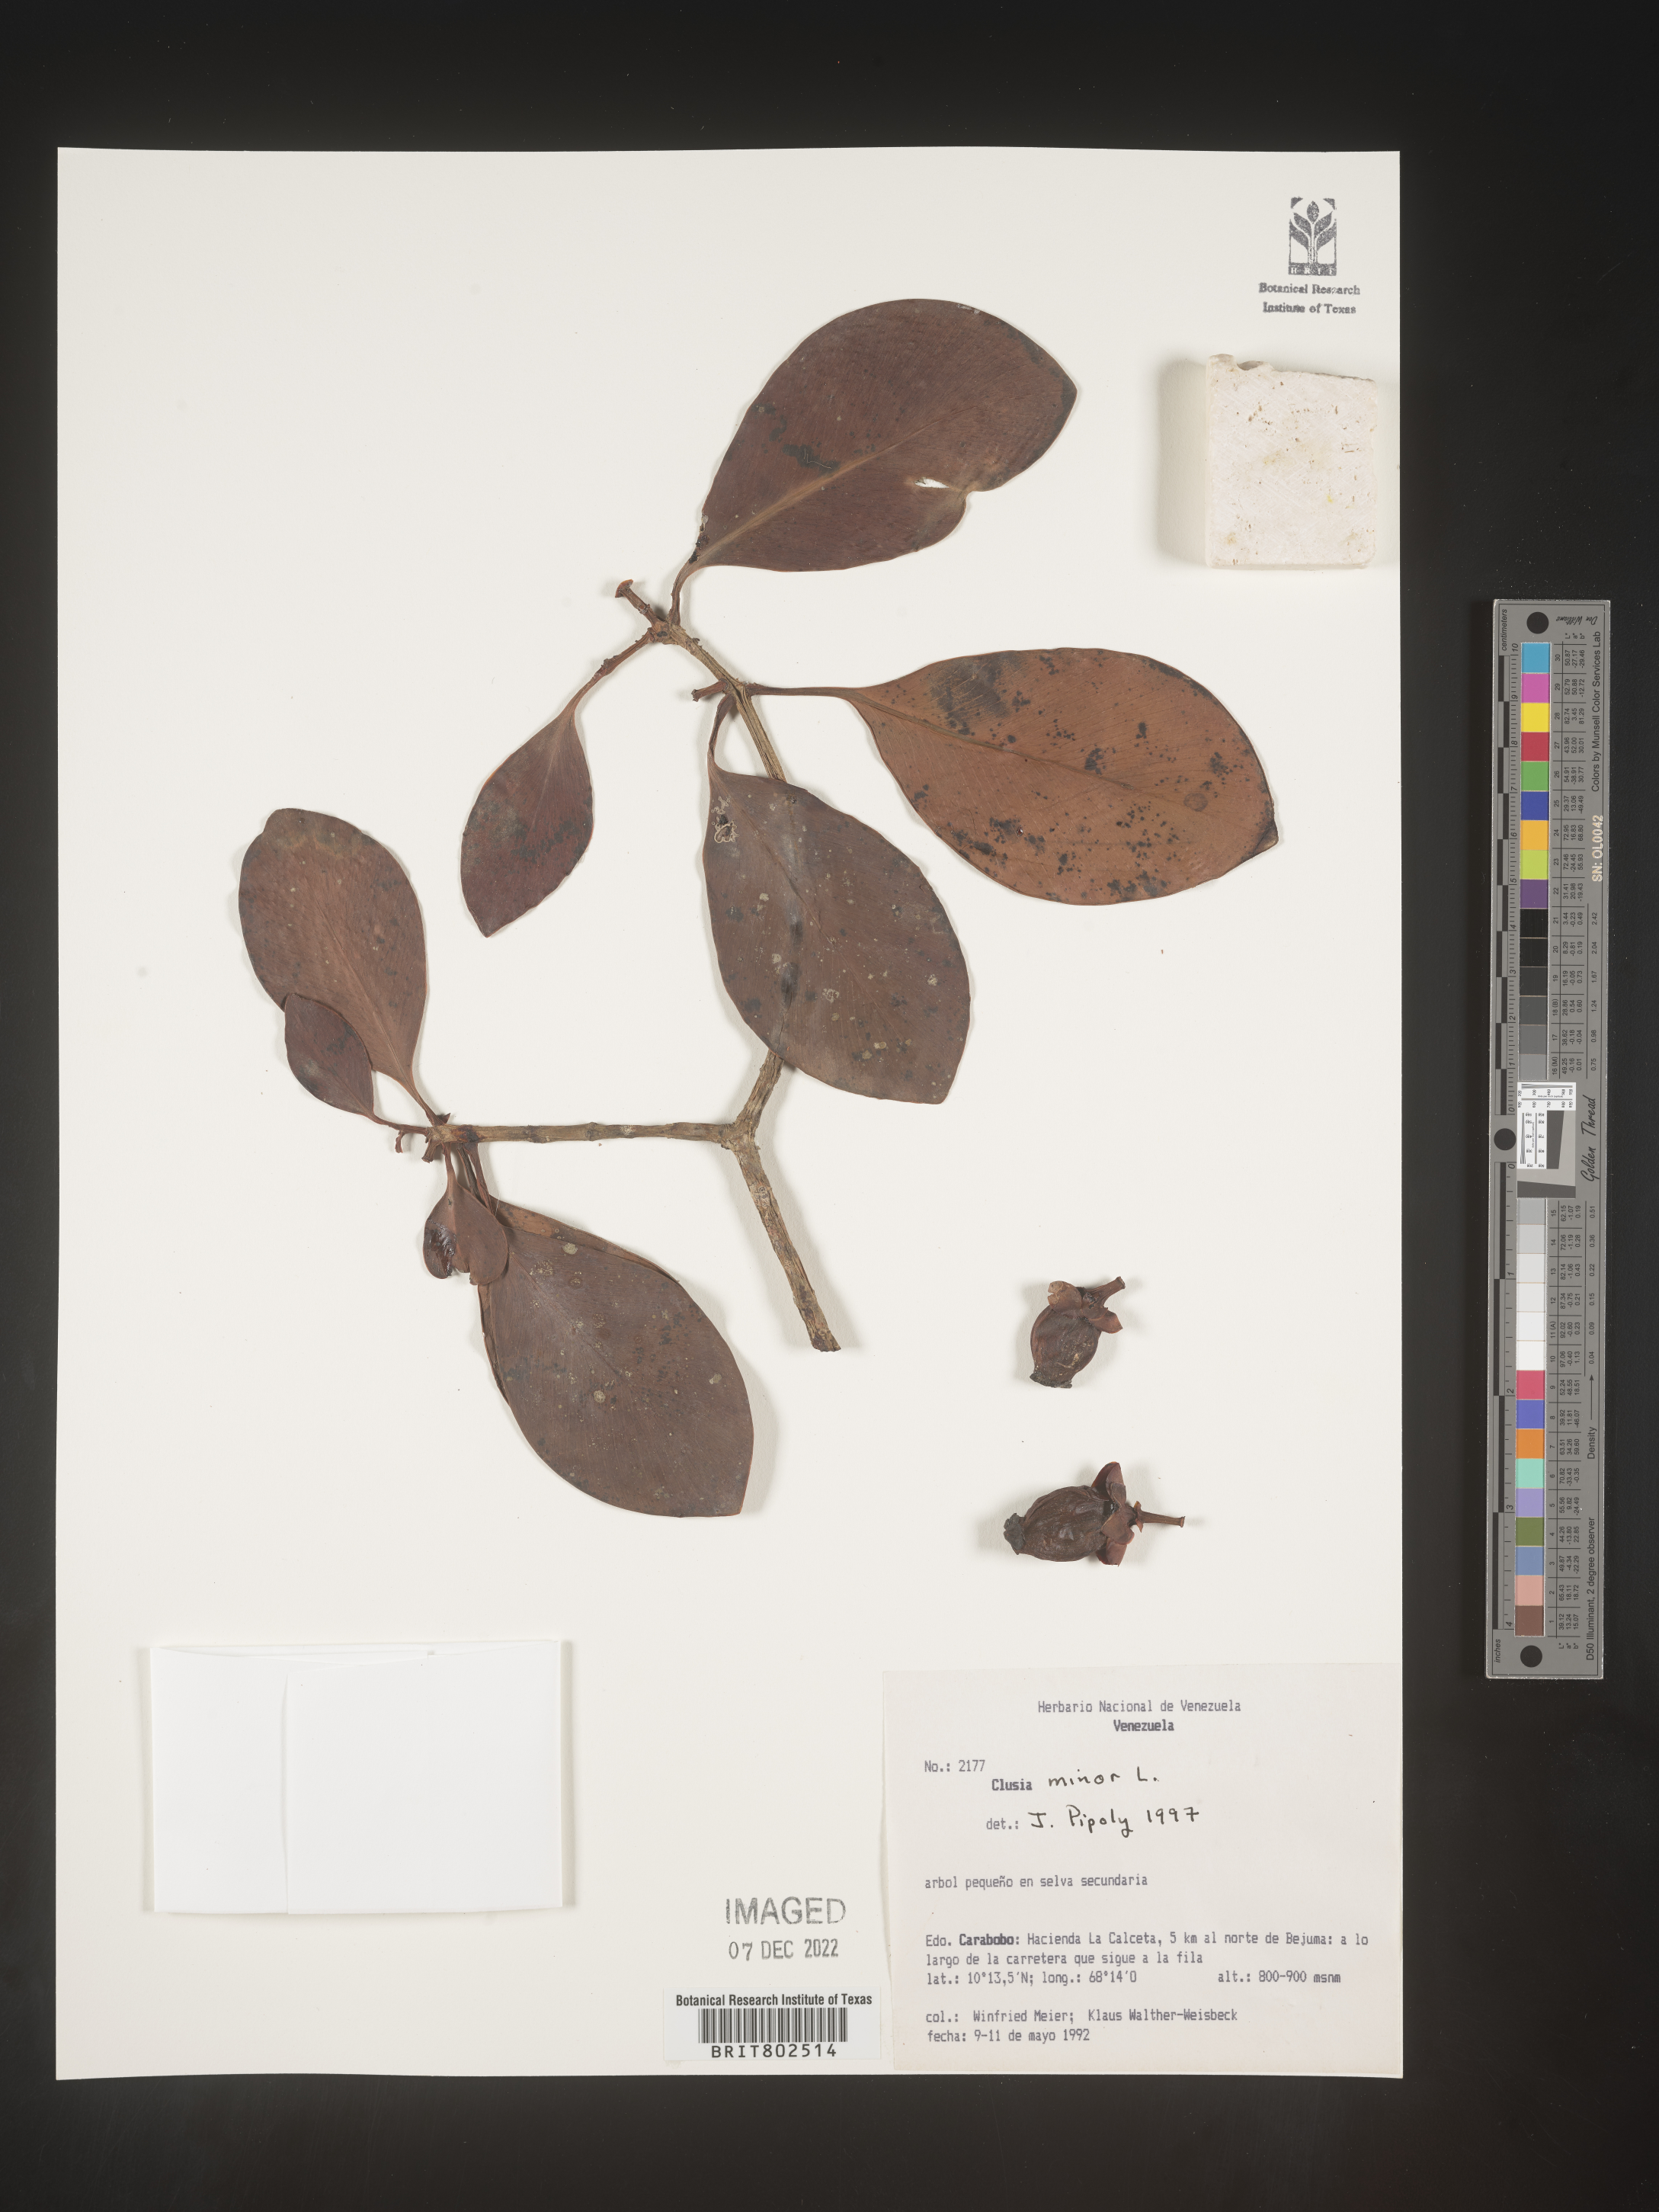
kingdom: Plantae
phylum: Tracheophyta
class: Magnoliopsida
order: Malpighiales
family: Clusiaceae
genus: Clusia
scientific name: Clusia minor
